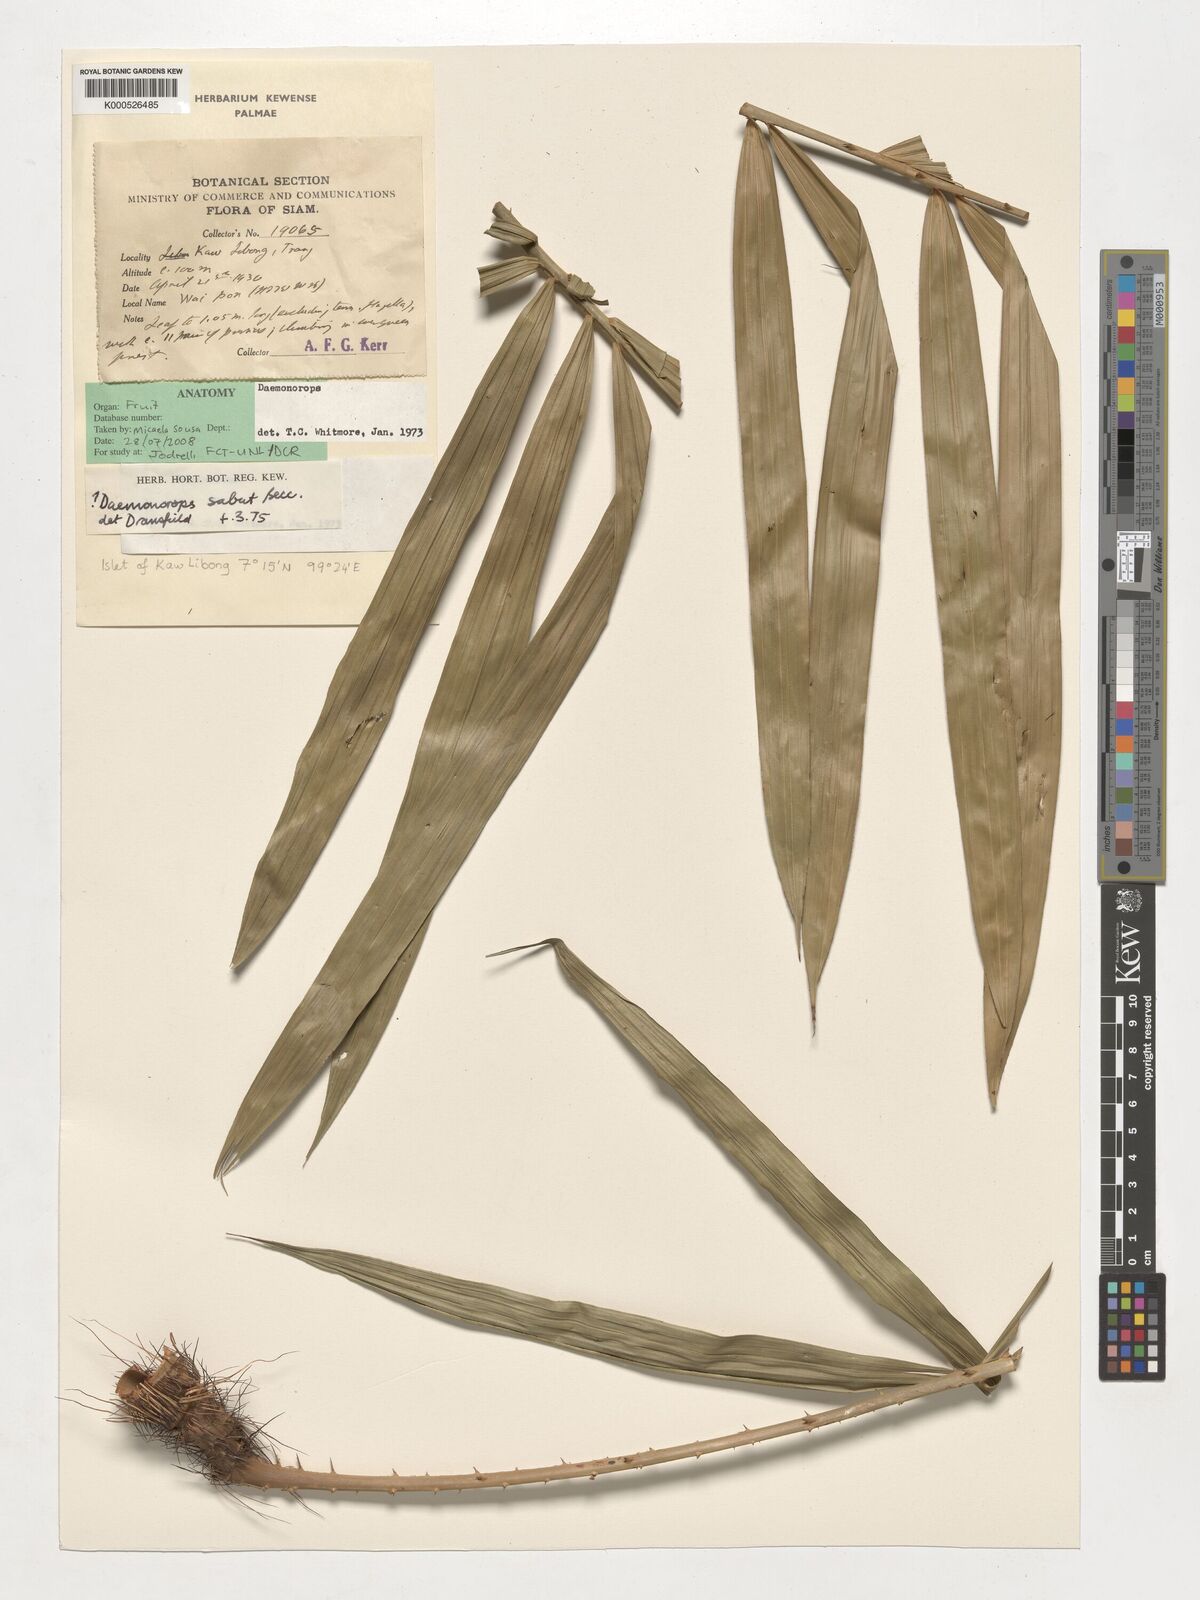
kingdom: Plantae
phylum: Tracheophyta
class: Liliopsida
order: Arecales
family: Arecaceae
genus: Calamus
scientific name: Calamus crinitus
